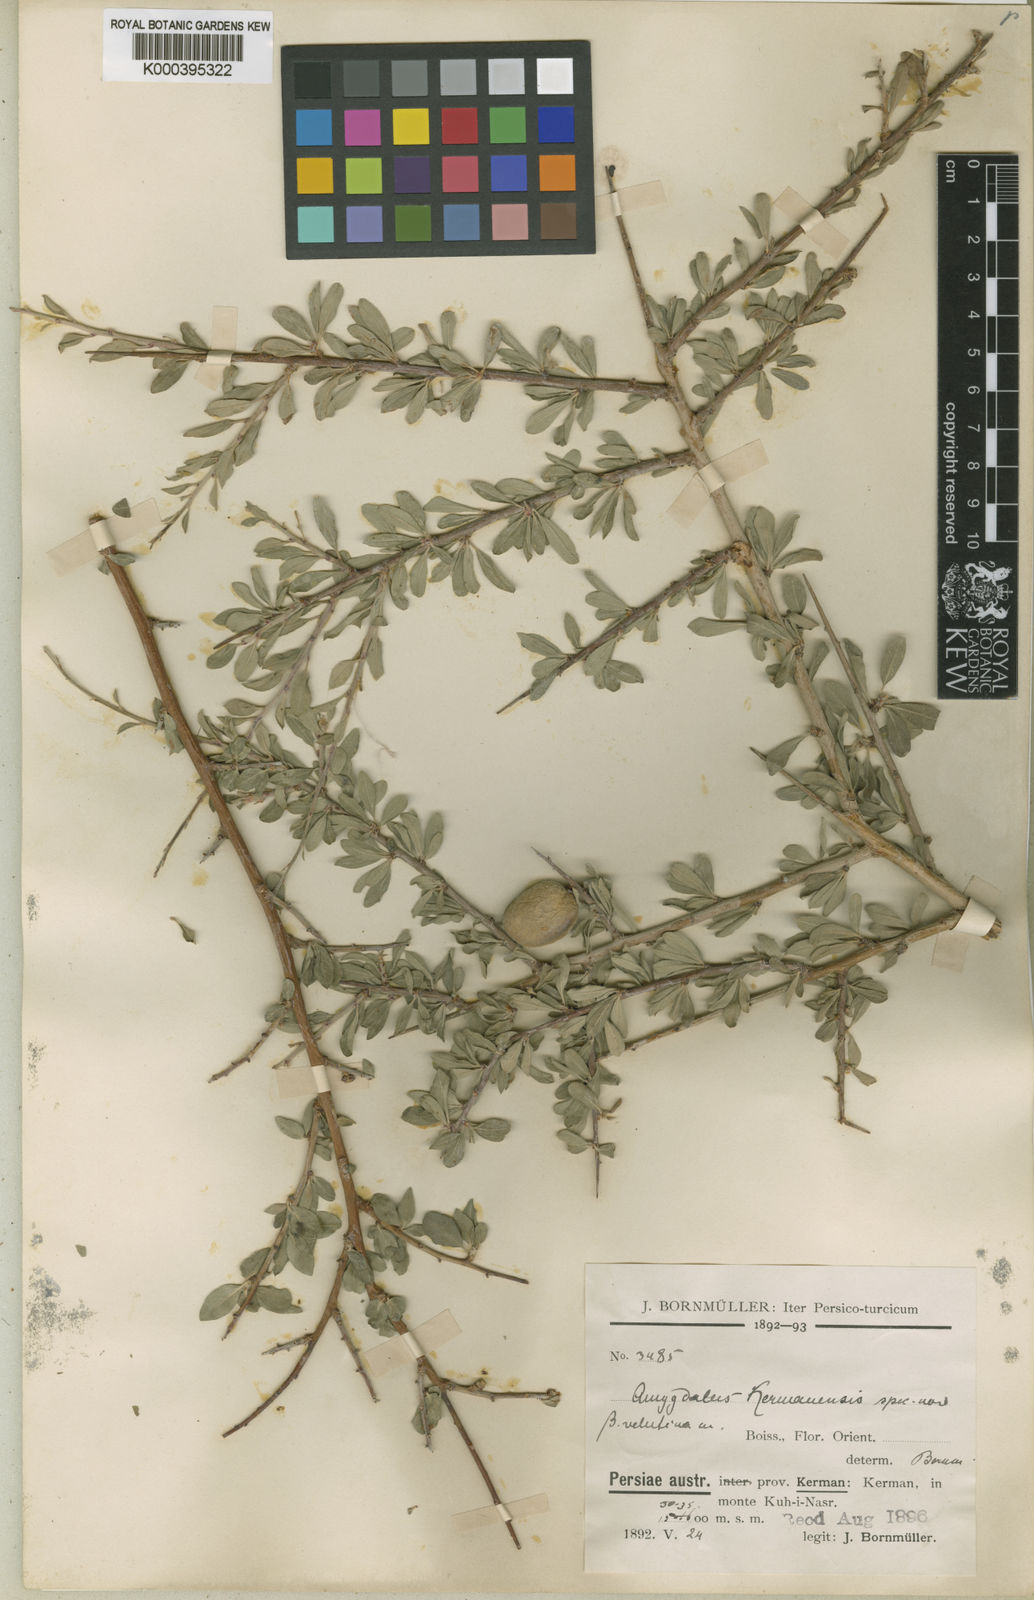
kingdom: Plantae
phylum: Tracheophyta
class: Magnoliopsida
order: Rosales
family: Rosaceae
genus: Prunus
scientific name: Prunus
